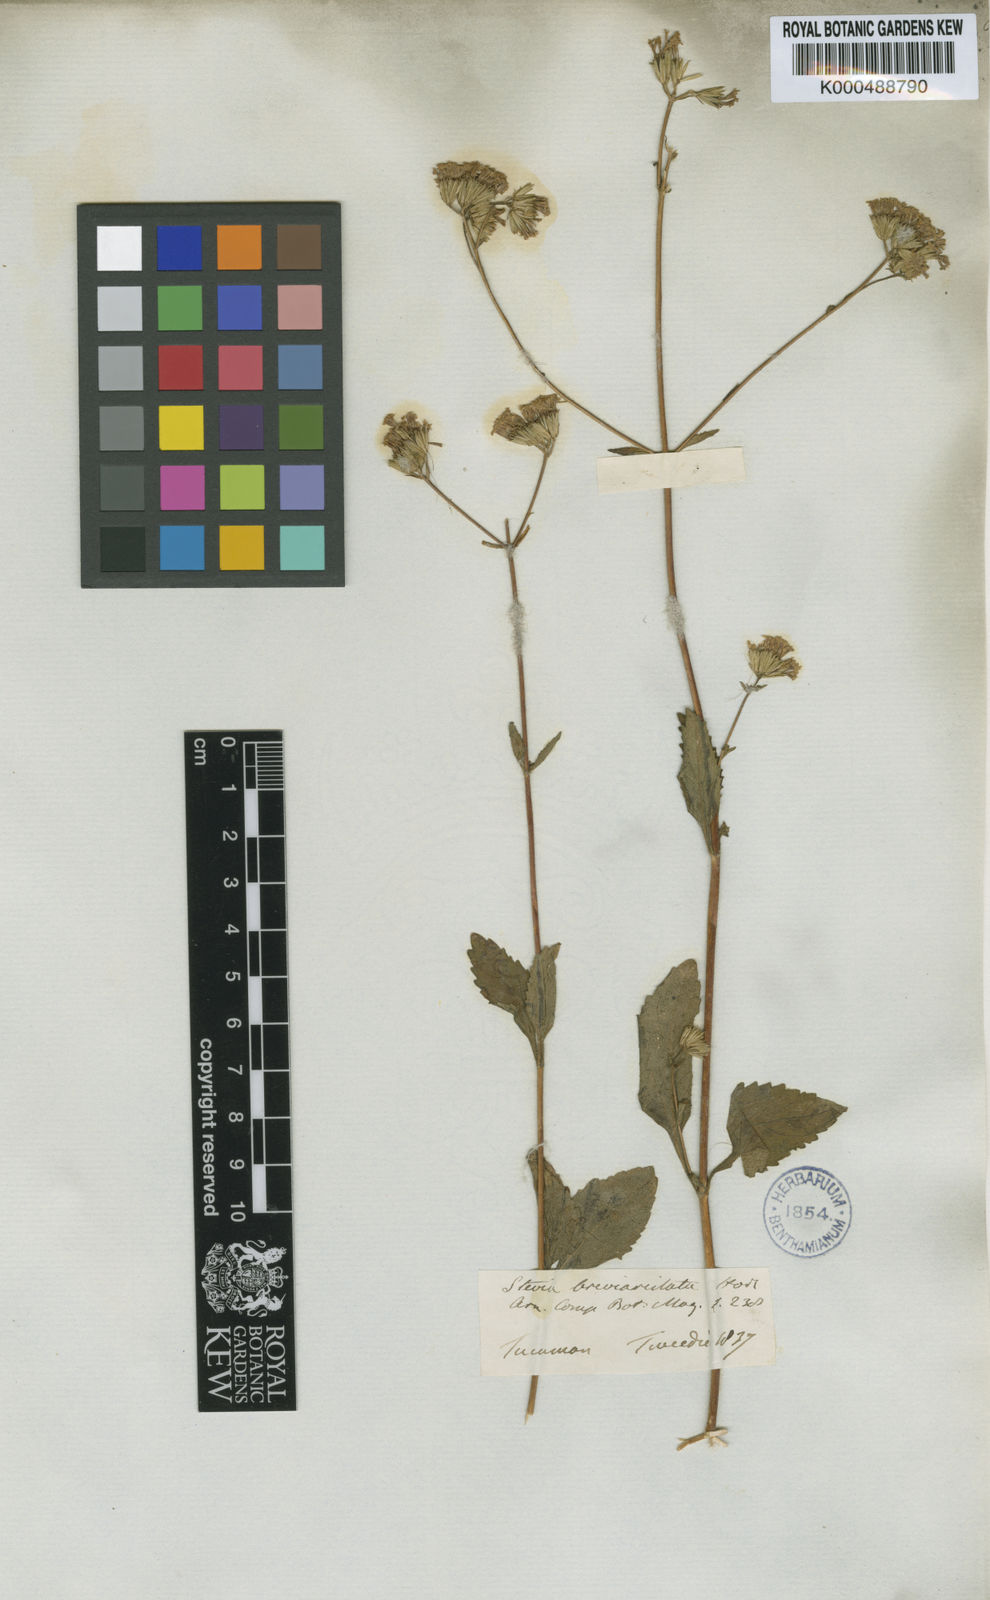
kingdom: Plantae
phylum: Tracheophyta
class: Magnoliopsida
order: Asterales
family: Asteraceae
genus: Stevia
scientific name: Stevia breviaristata
